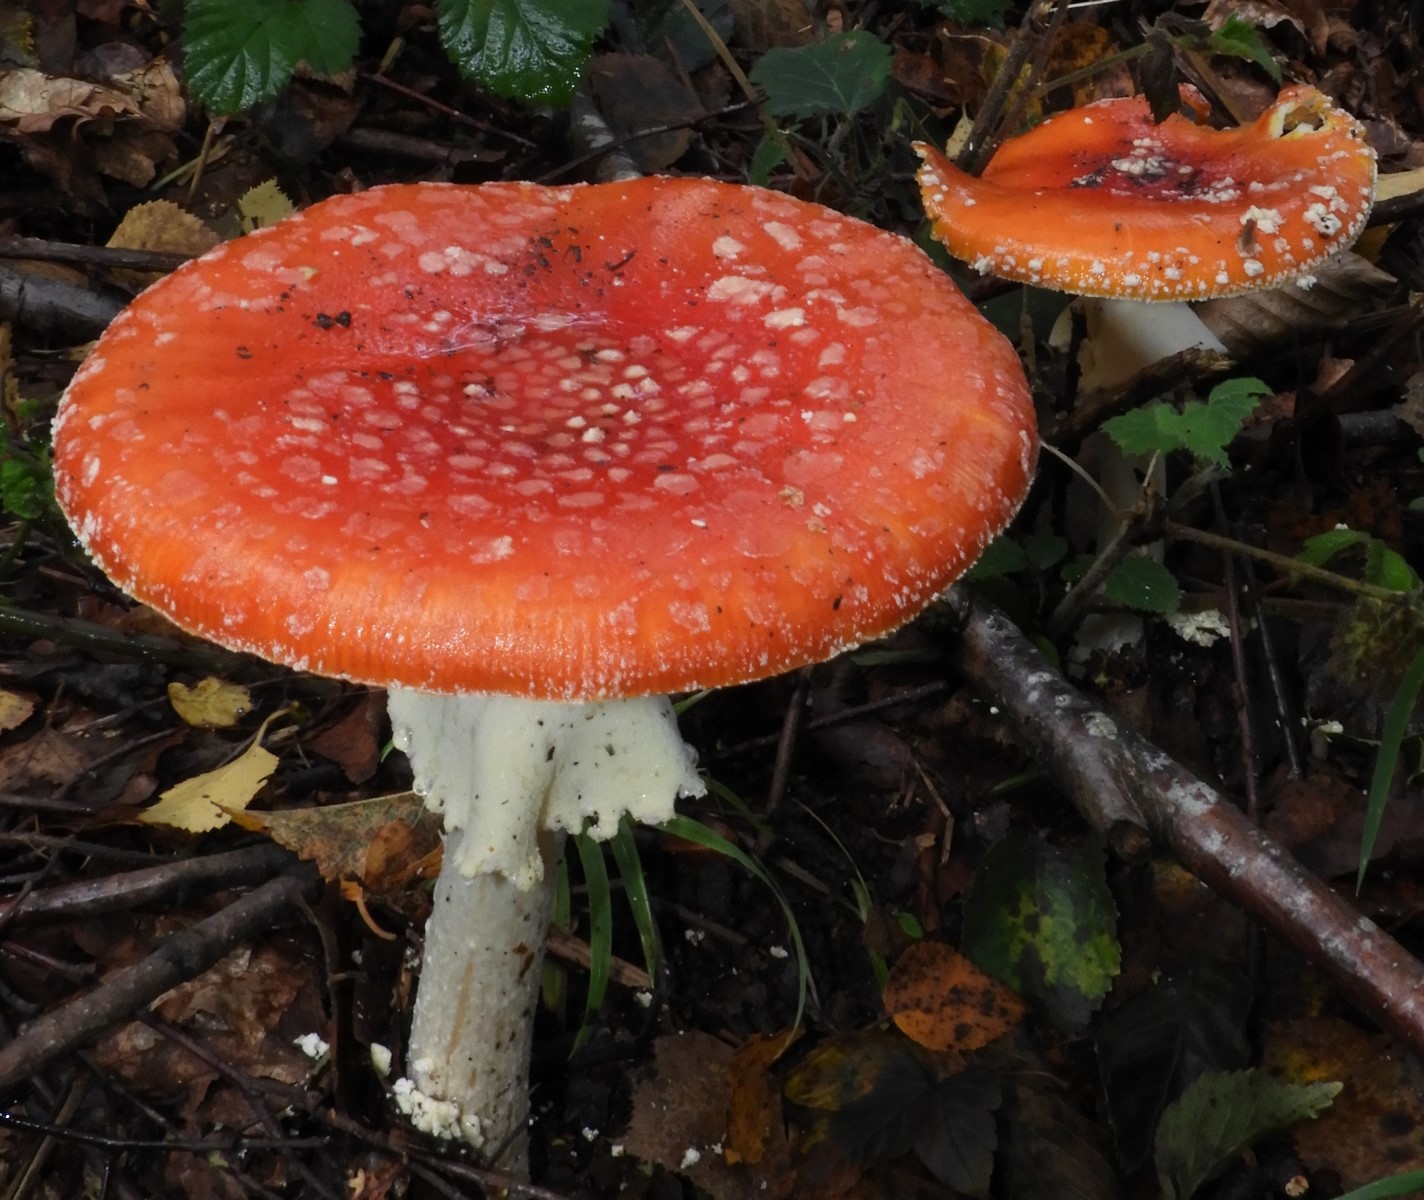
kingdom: Fungi
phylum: Basidiomycota
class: Agaricomycetes
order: Agaricales
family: Amanitaceae
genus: Amanita
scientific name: Amanita muscaria
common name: rød fluesvamp
